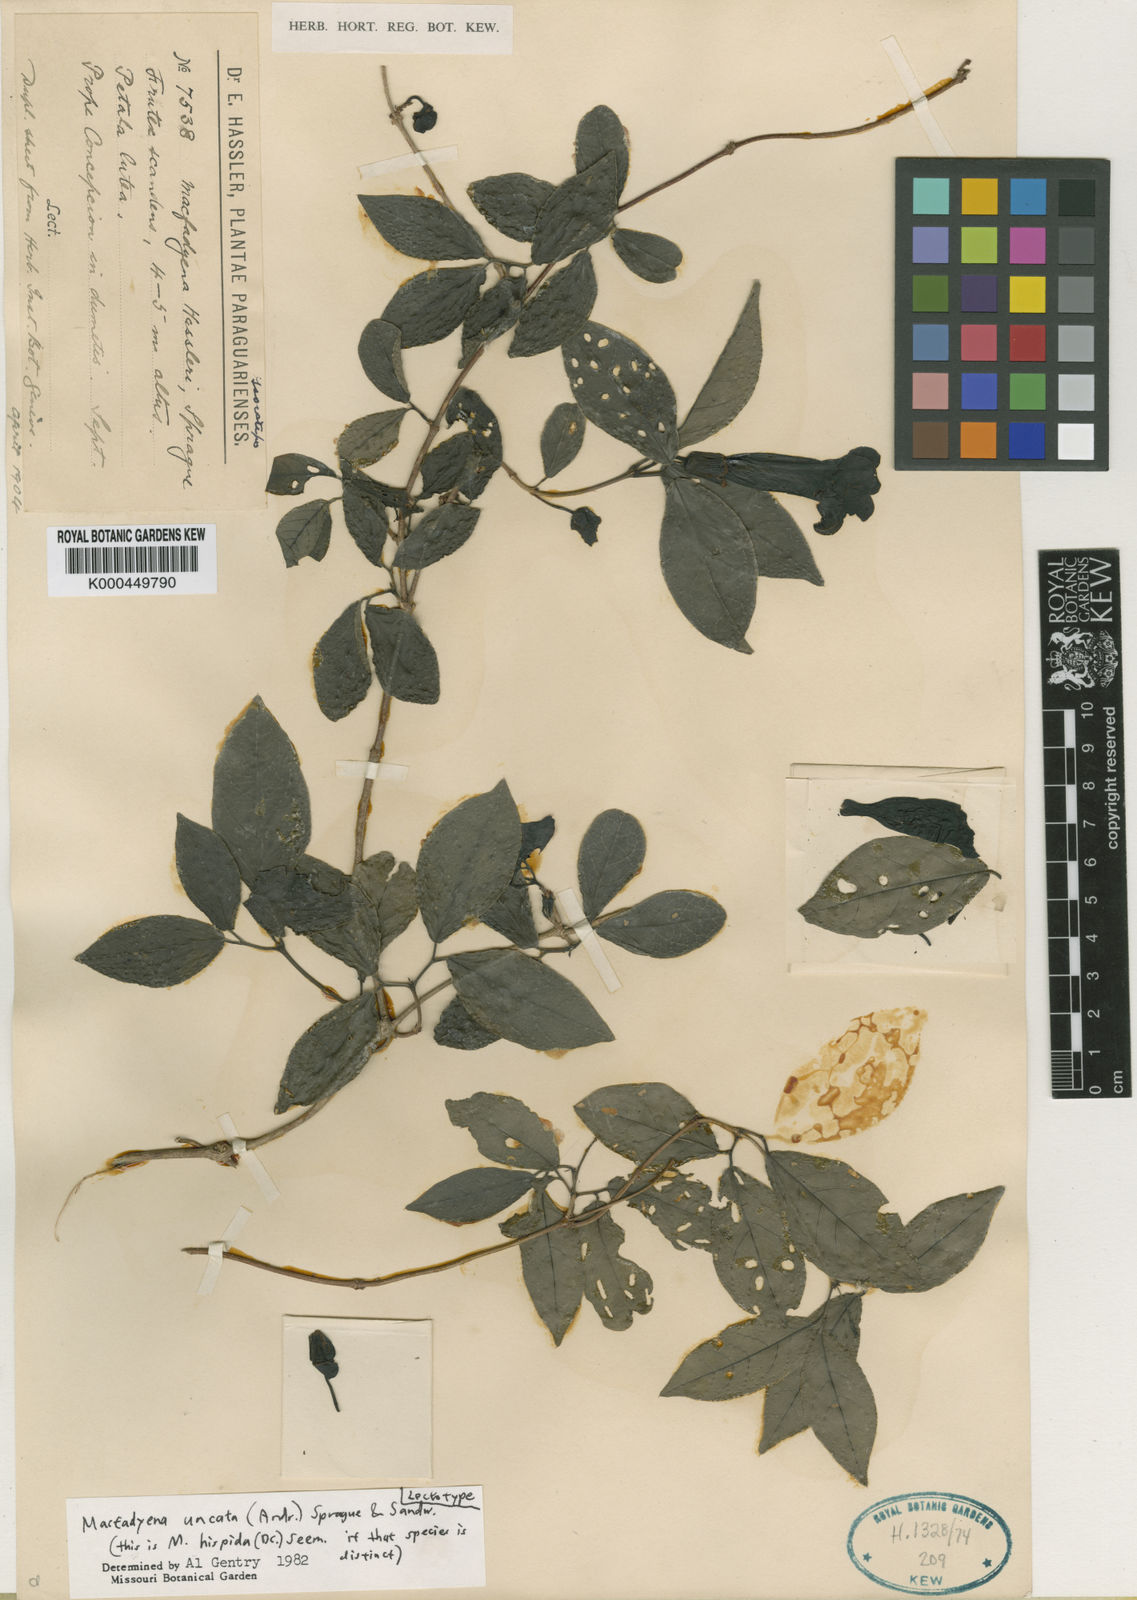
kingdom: Plantae
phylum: Tracheophyta
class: Magnoliopsida
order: Lamiales
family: Bignoniaceae
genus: Dolichandra
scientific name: Dolichandra uncata
